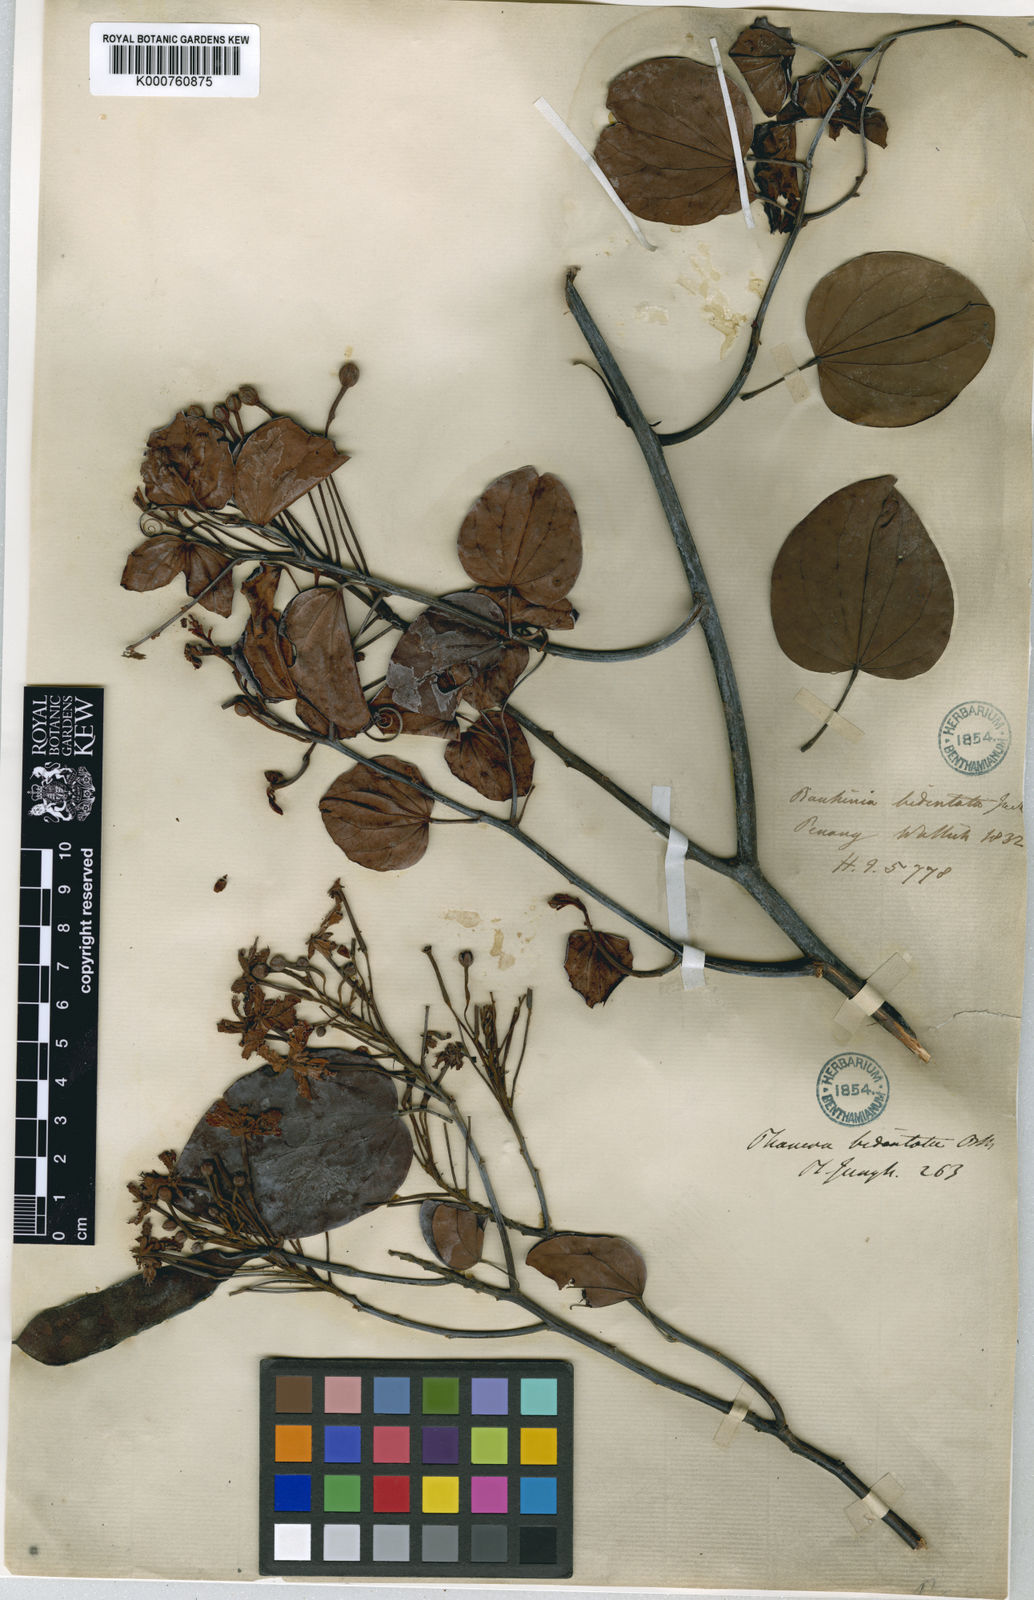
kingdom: Plantae
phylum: Tracheophyta
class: Magnoliopsida
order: Fabales
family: Fabaceae
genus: Phanera
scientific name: Phanera bidentata
